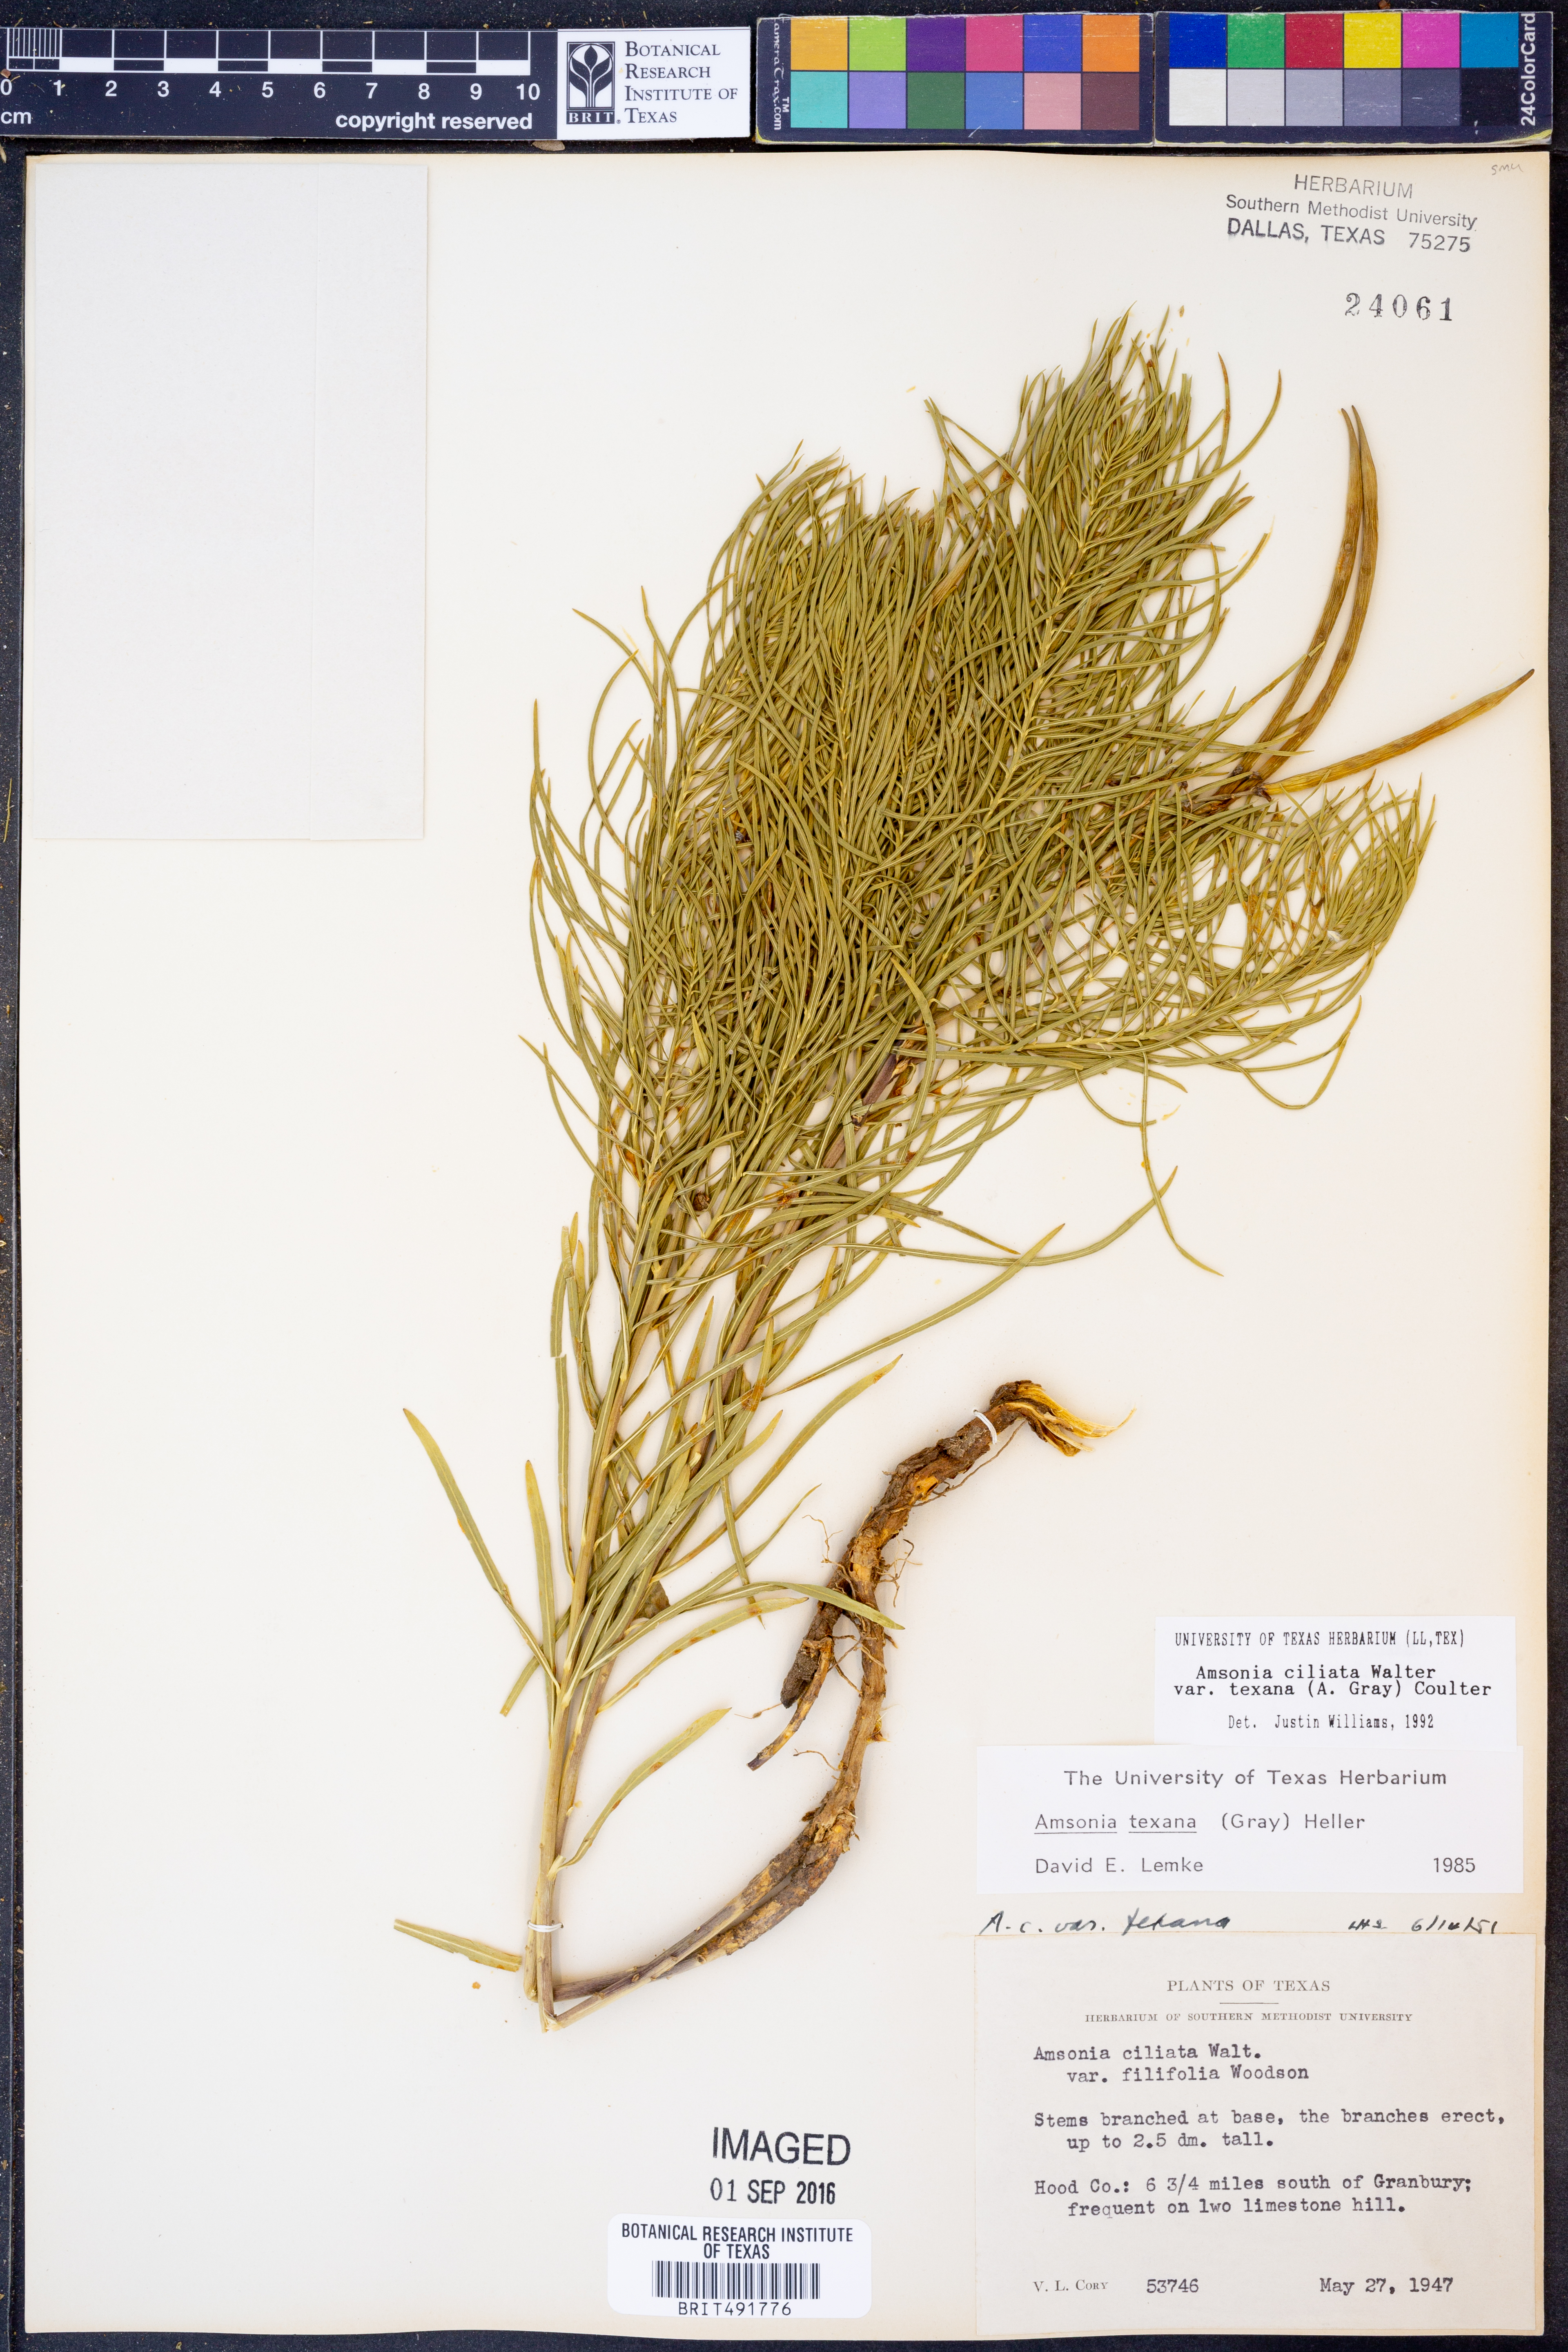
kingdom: Plantae
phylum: Tracheophyta
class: Magnoliopsida
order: Gentianales
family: Apocynaceae
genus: Amsonia
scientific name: Amsonia ciliata
